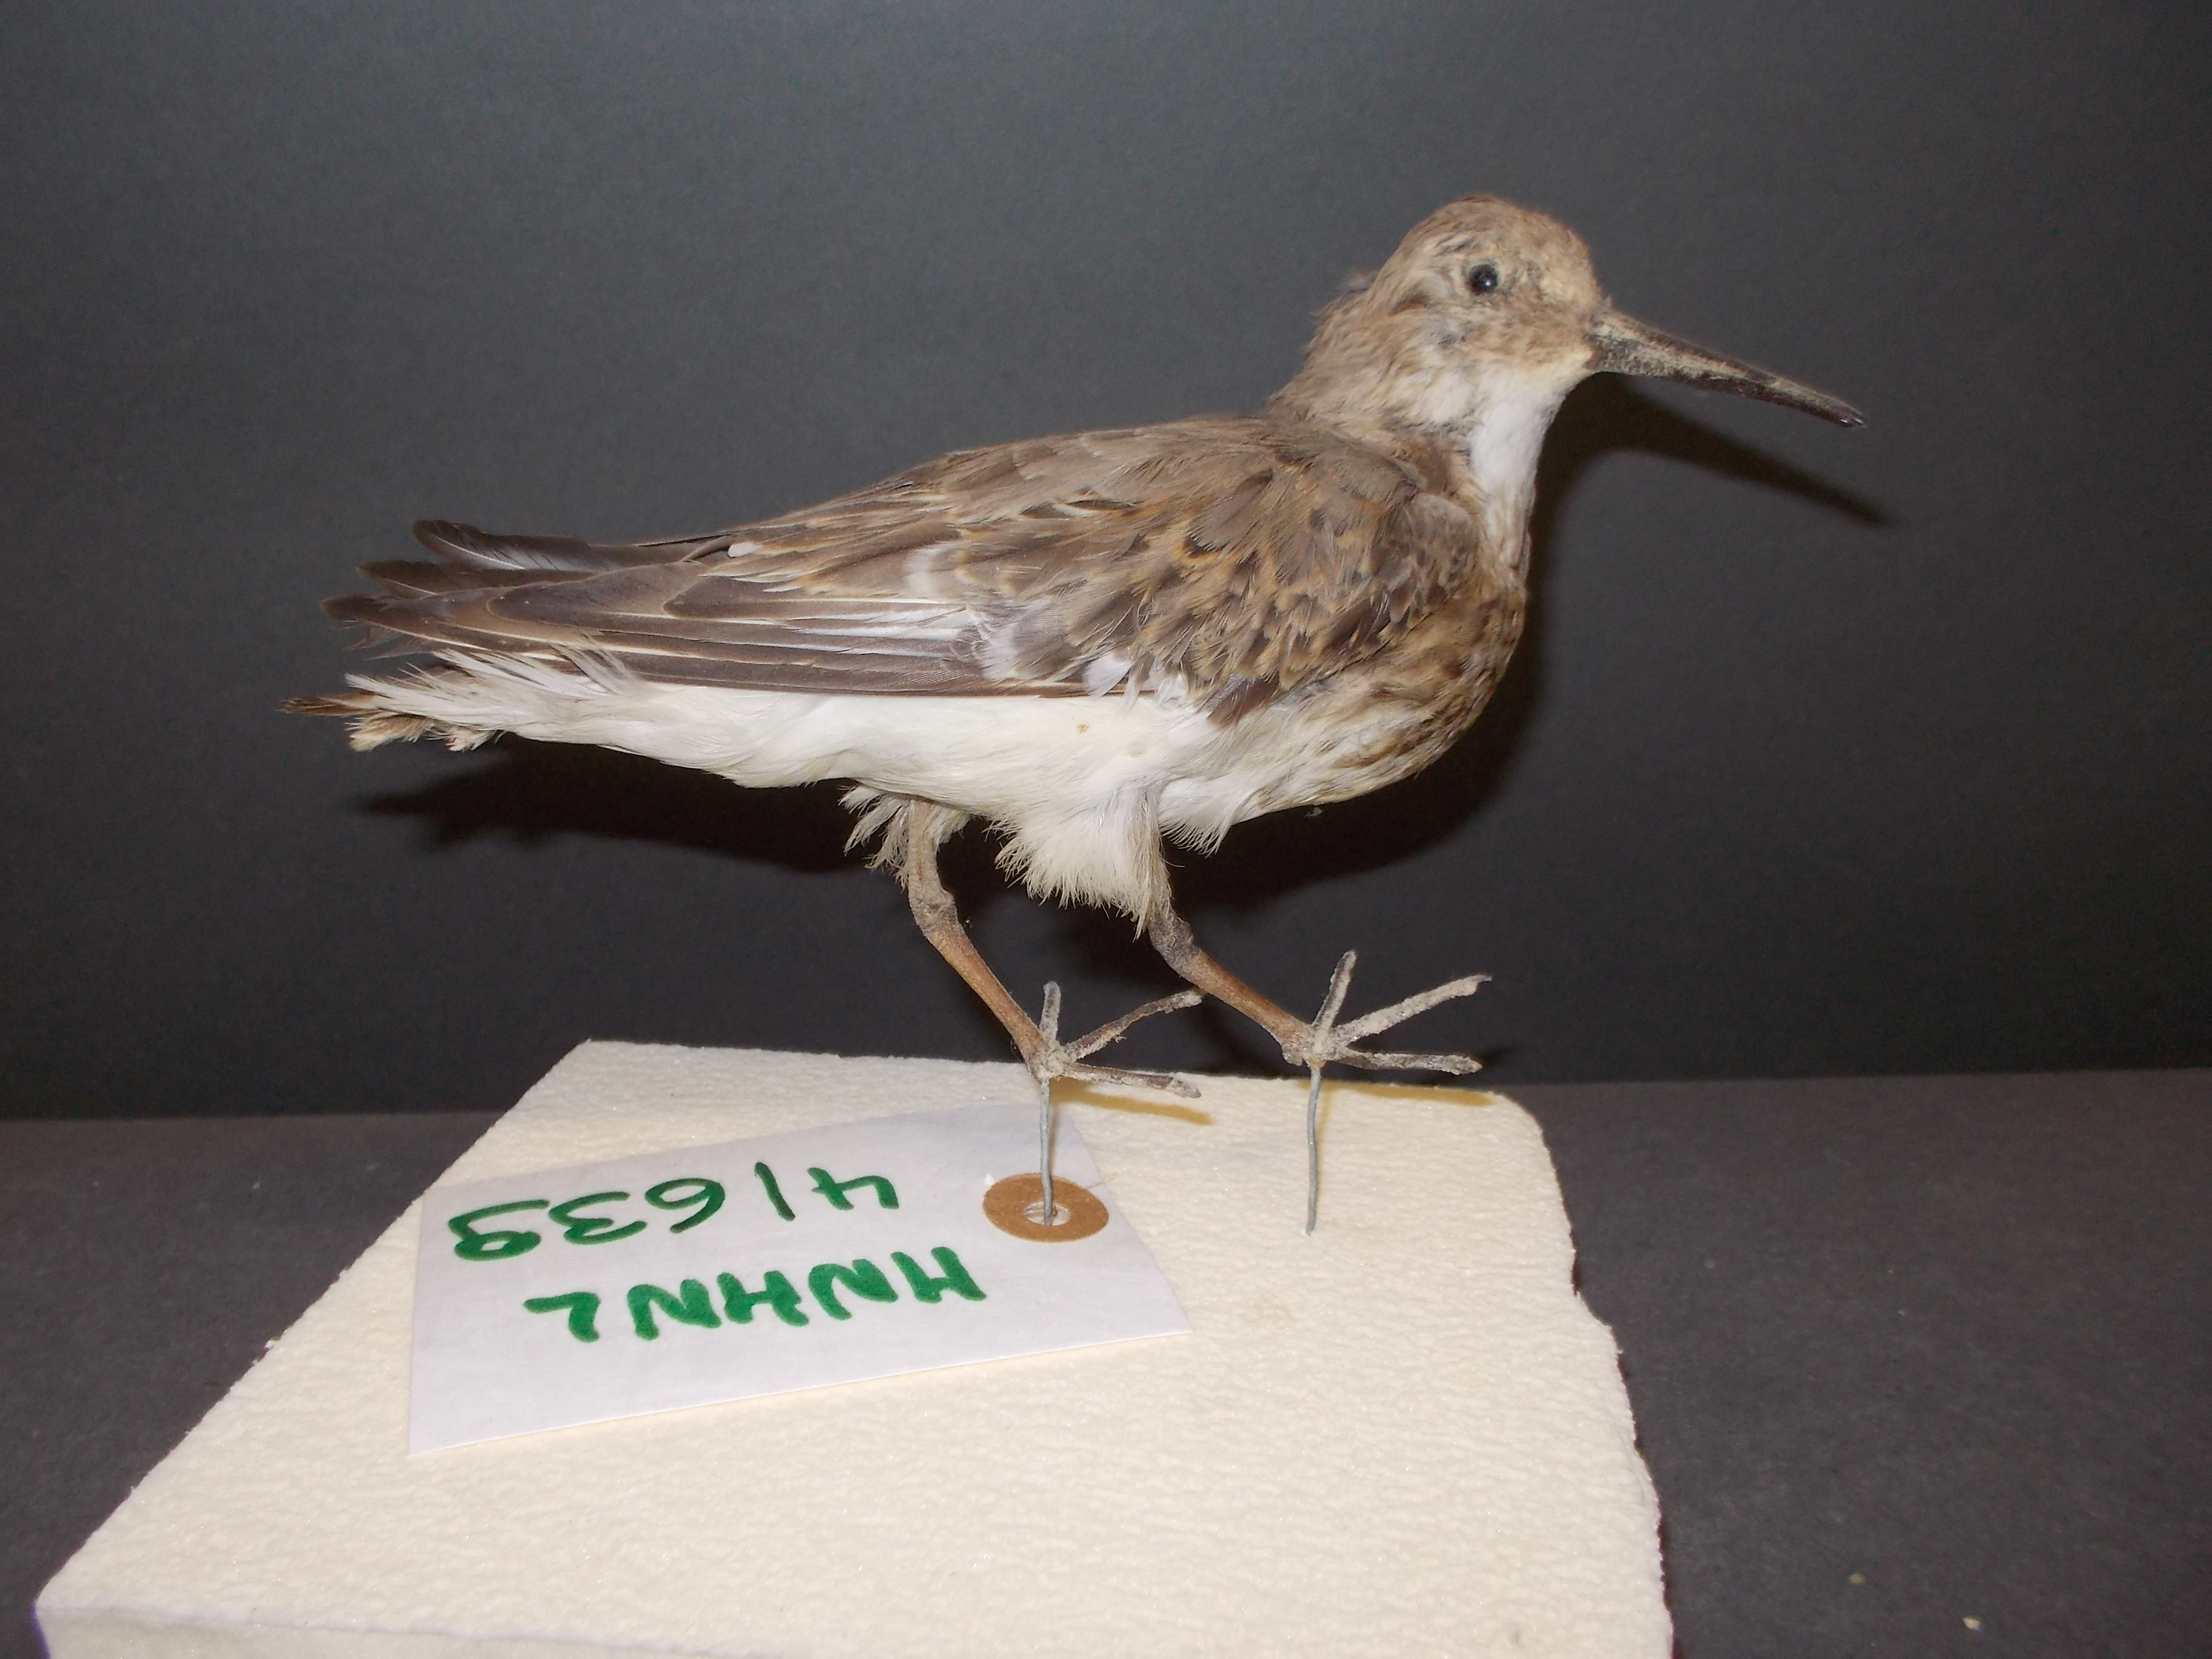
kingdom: Animalia
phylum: Chordata
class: Aves
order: Charadriiformes
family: Scolopacidae
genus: Calidris
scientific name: Calidris alpina
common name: Dunlin
